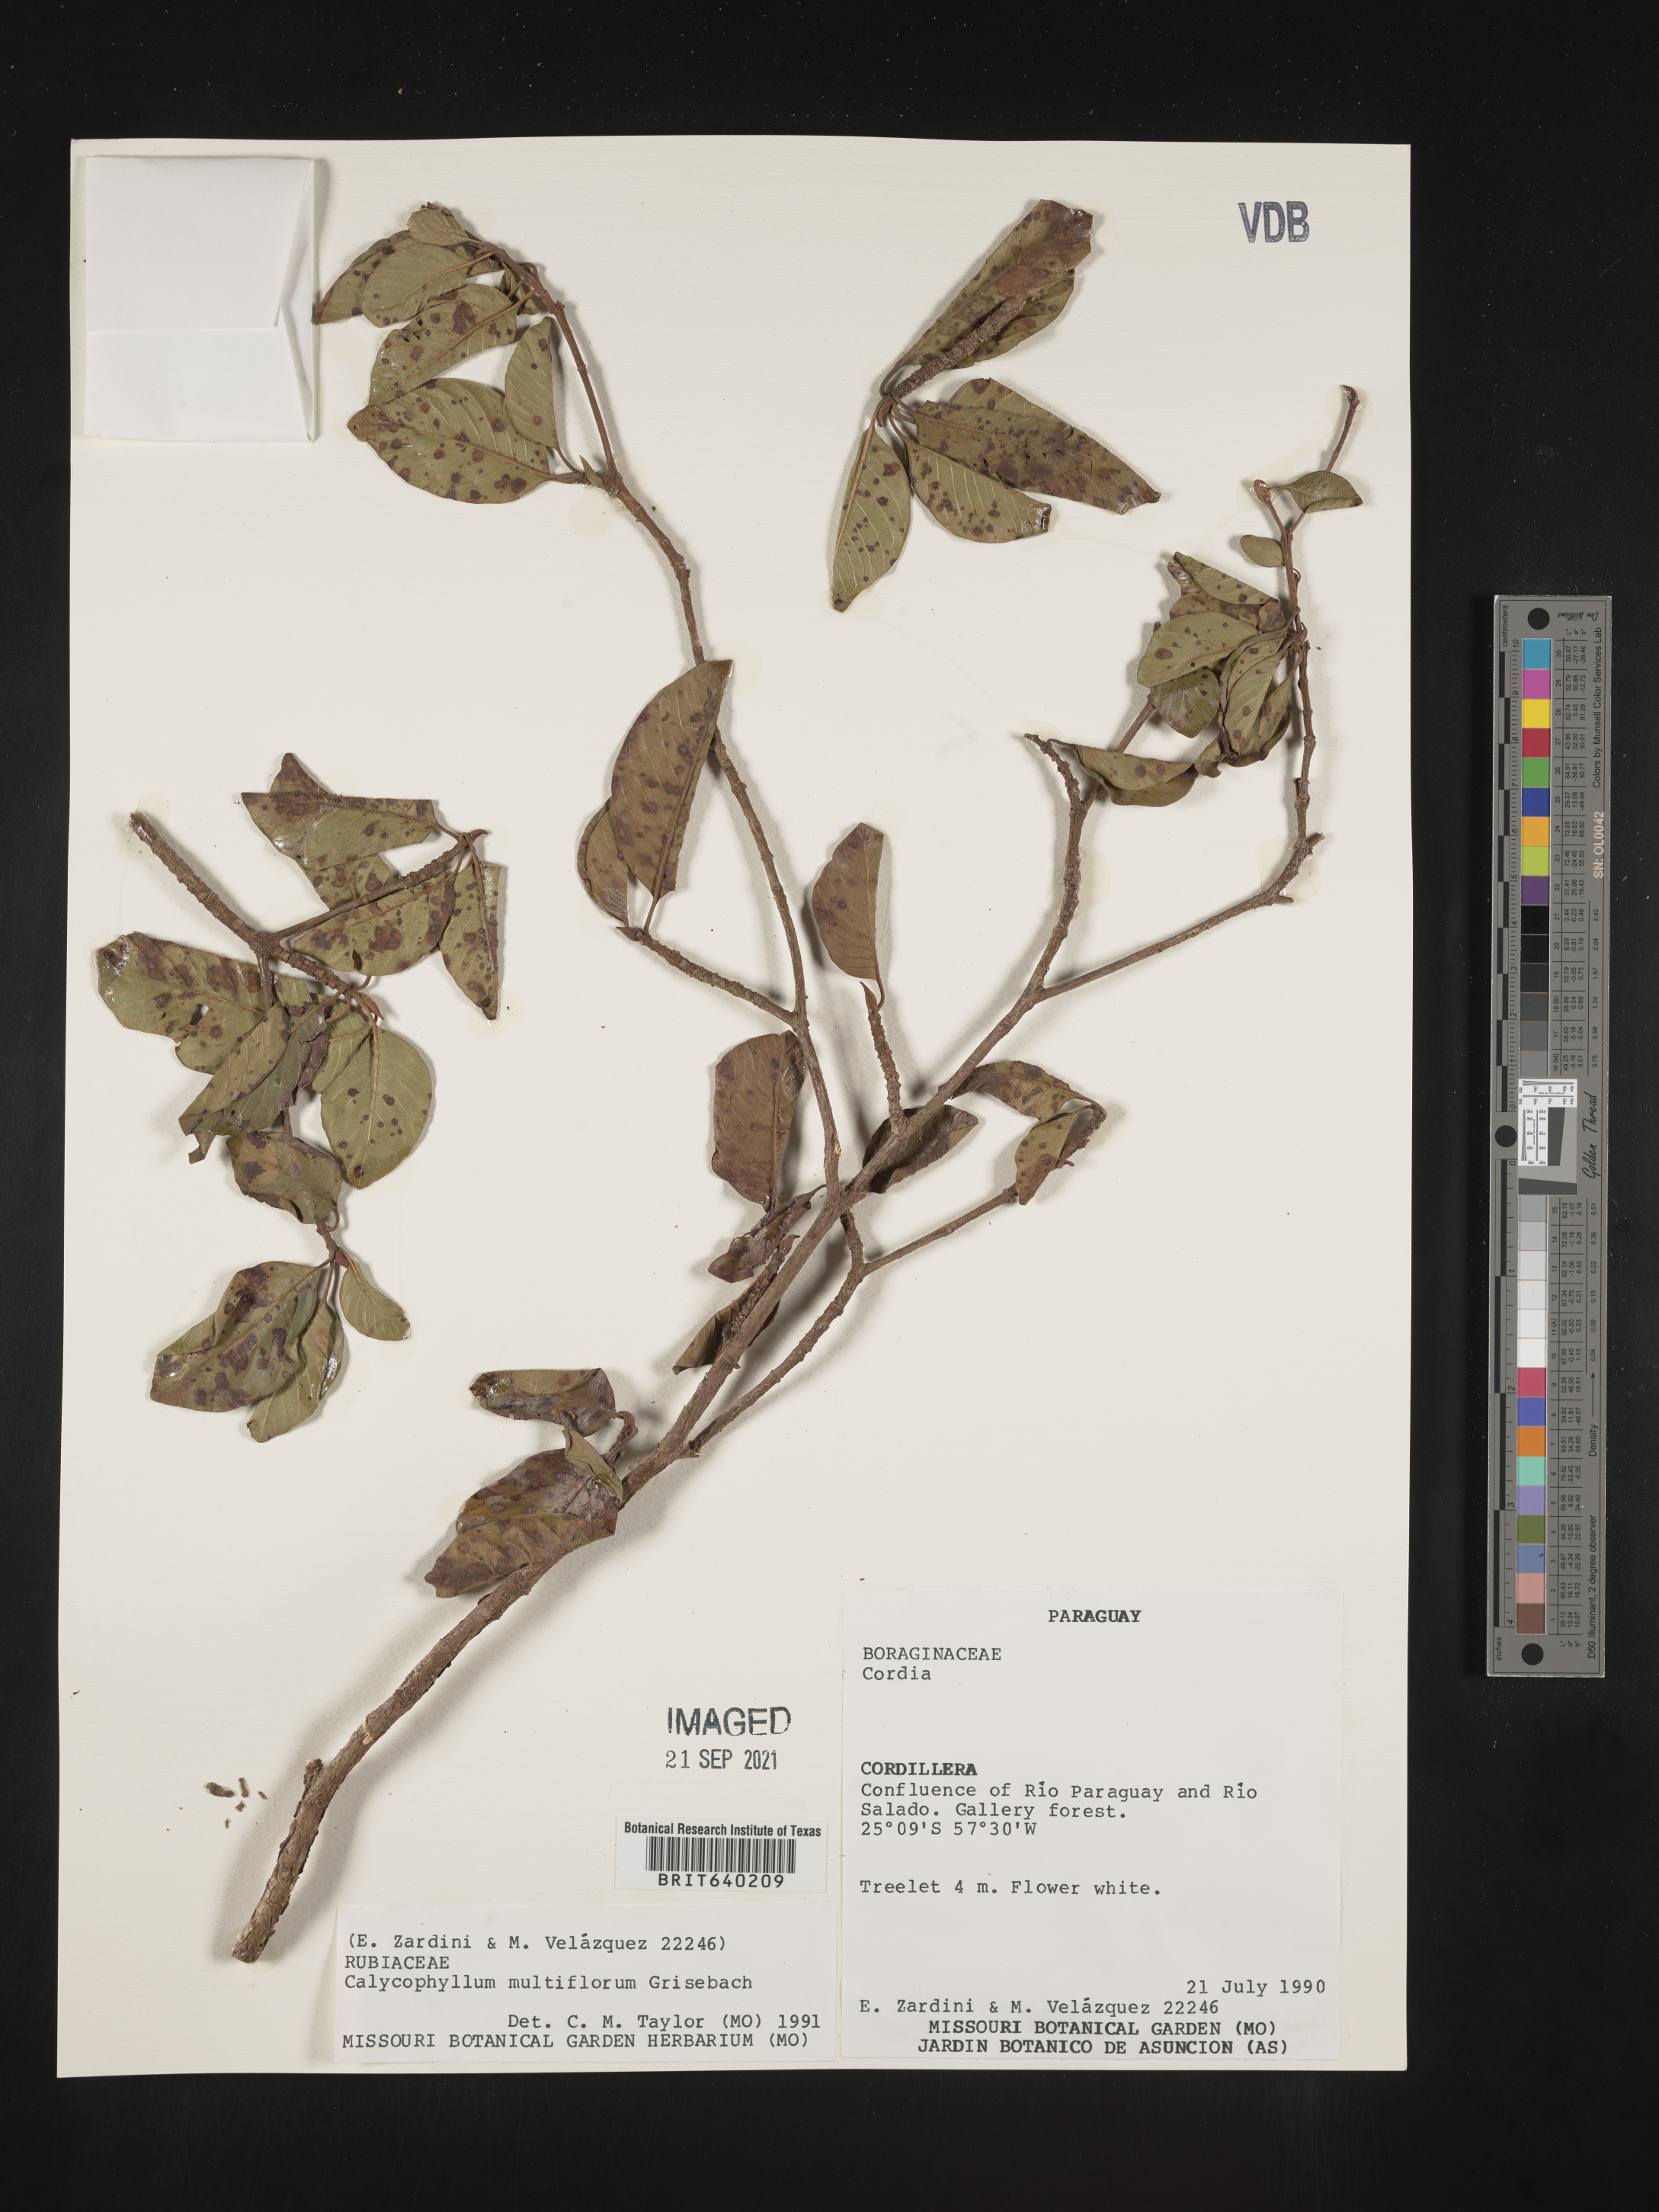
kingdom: Plantae
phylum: Tracheophyta
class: Magnoliopsida
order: Gentianales
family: Rubiaceae
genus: Calycophyllum
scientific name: Calycophyllum
